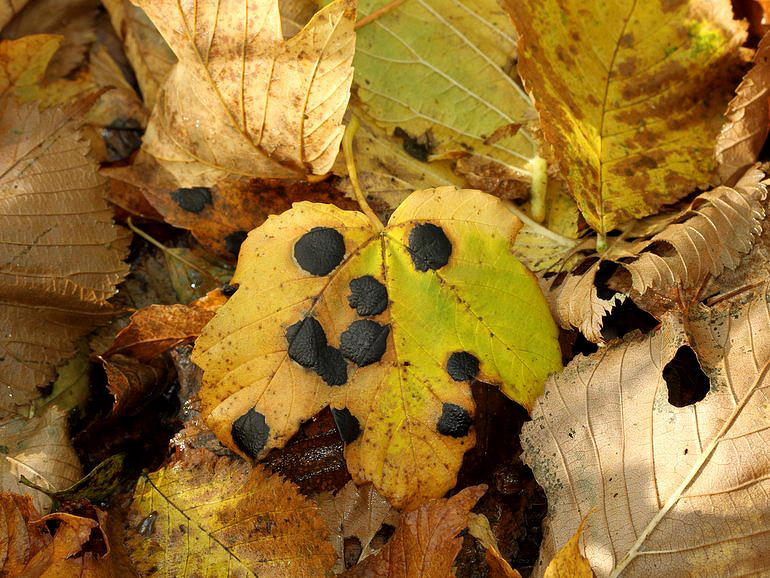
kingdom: Fungi
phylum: Ascomycota
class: Leotiomycetes
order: Rhytismatales
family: Rhytismataceae
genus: Rhytisma
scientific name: Rhytisma acerinum
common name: ahorn-rynkeplet
